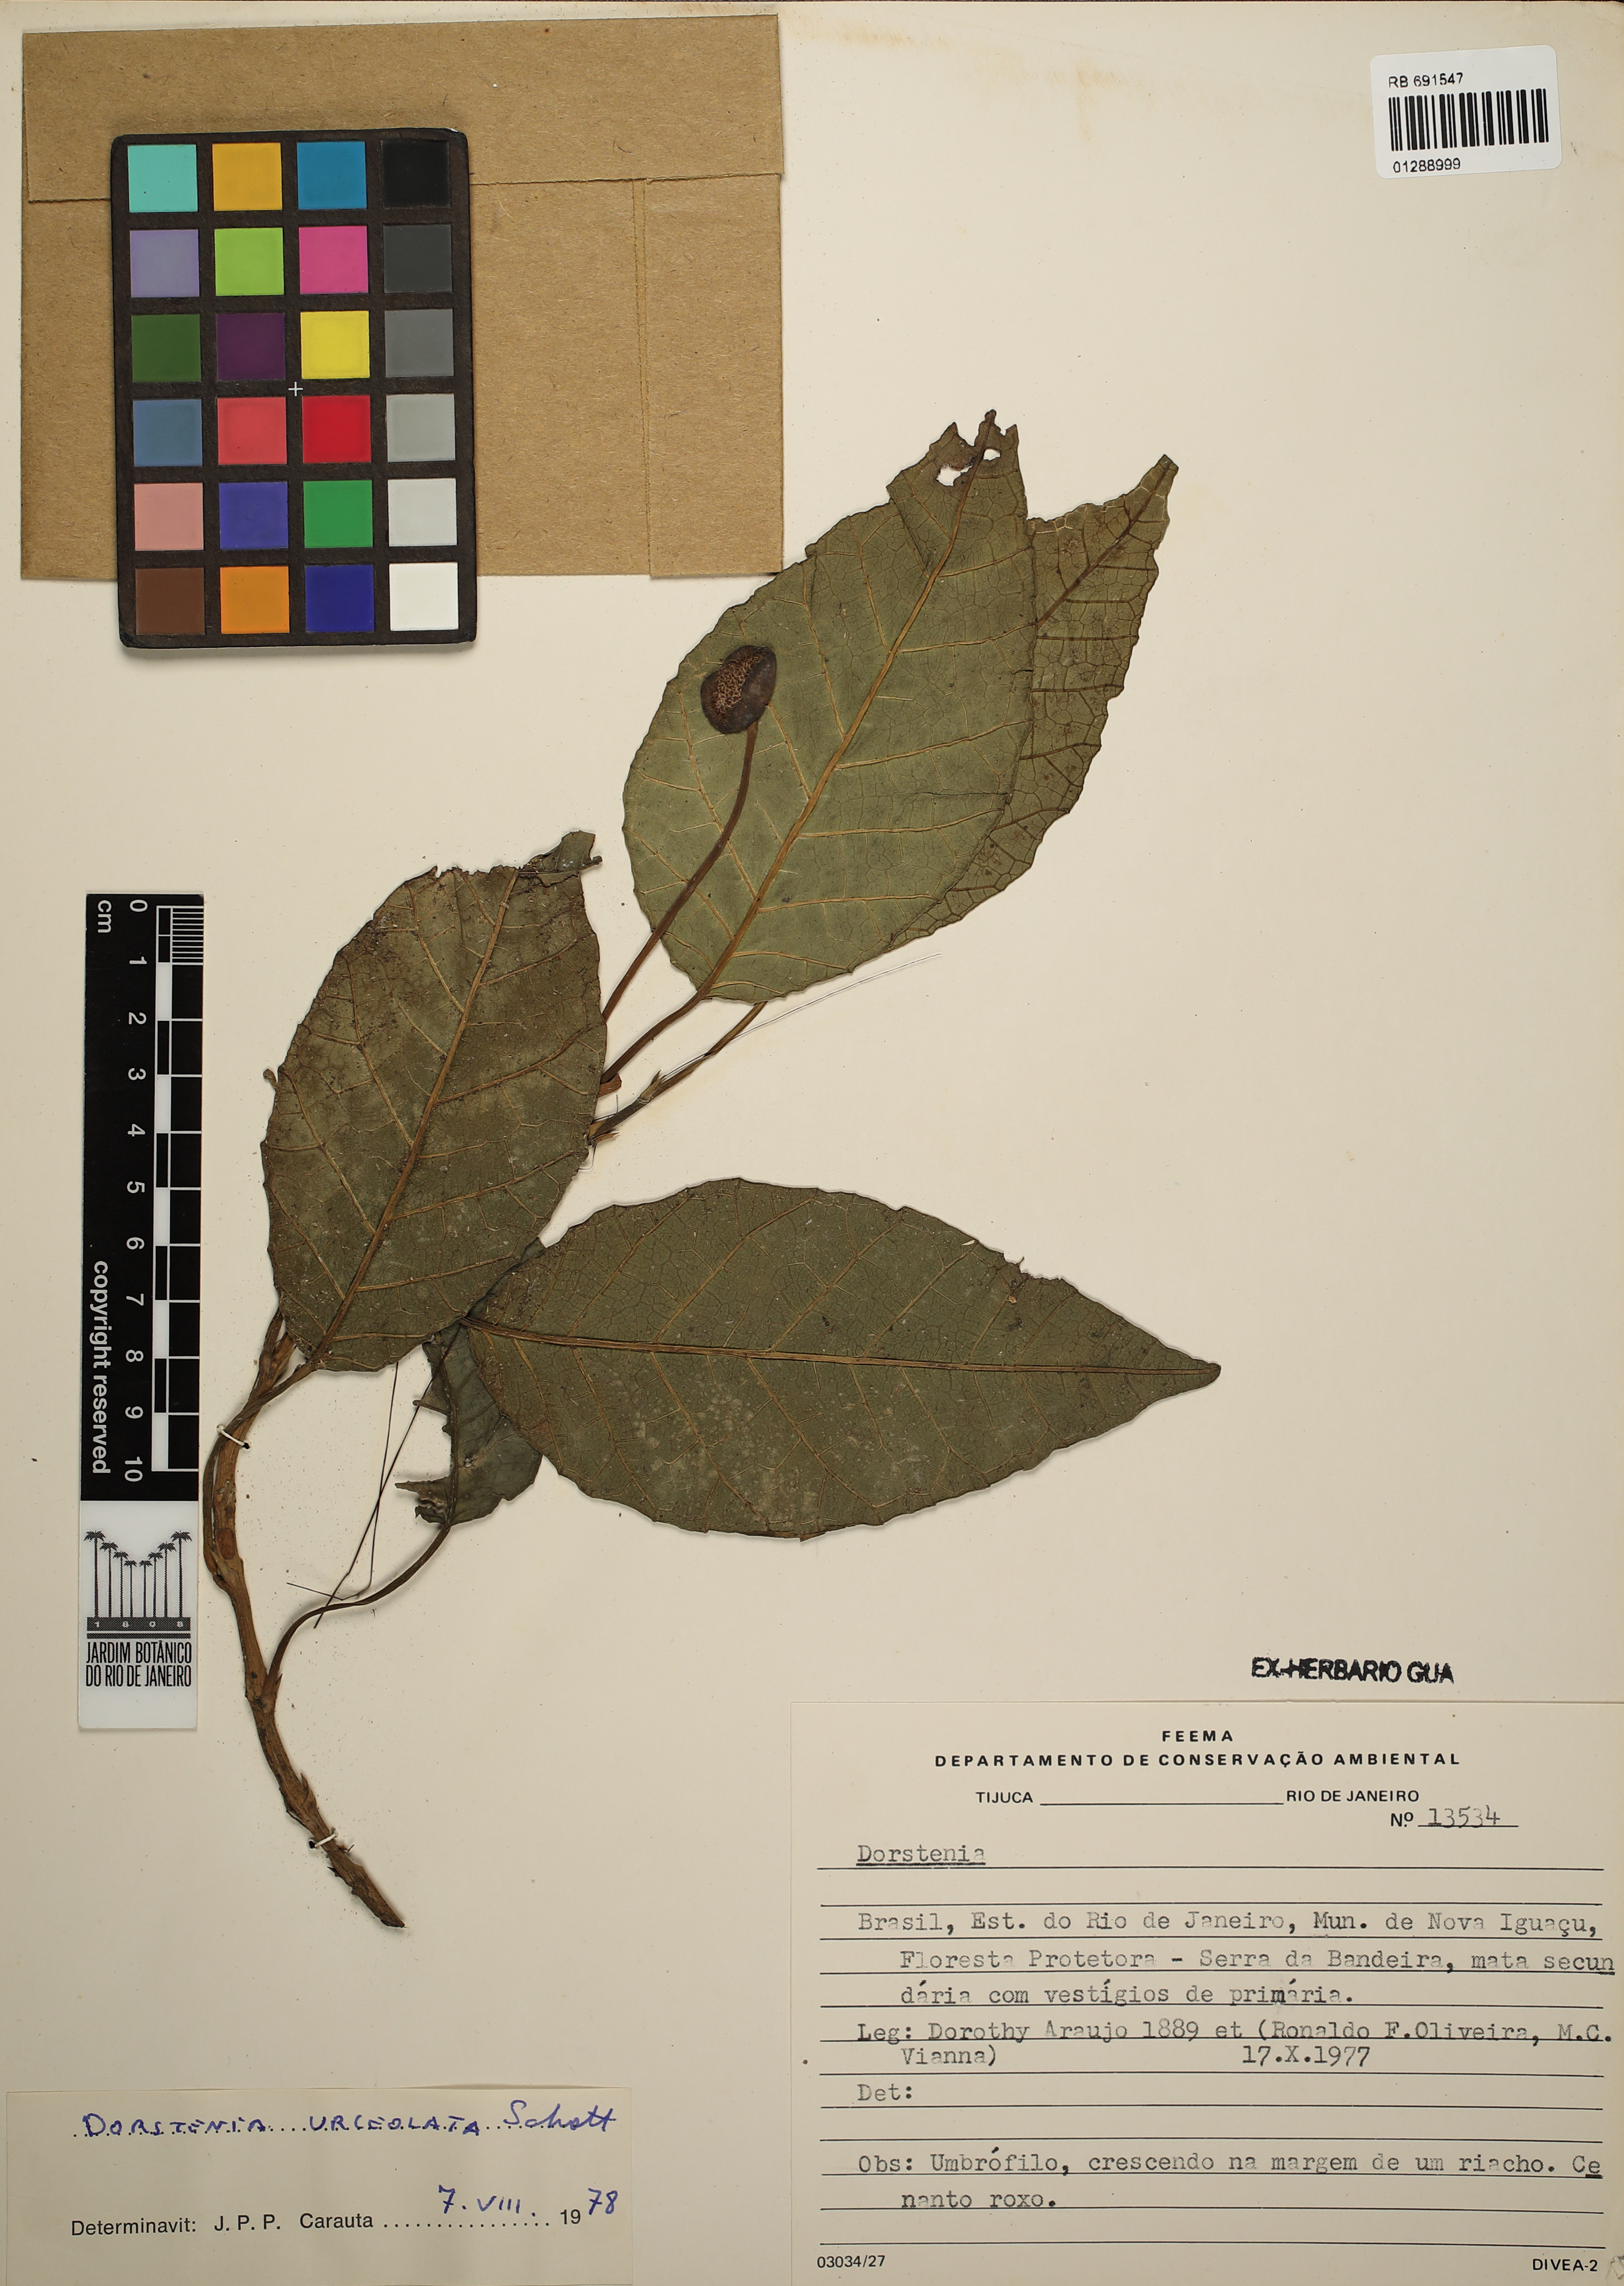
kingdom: Plantae
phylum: Tracheophyta
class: Magnoliopsida
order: Rosales
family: Moraceae
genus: Dorstenia
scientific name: Dorstenia urceolata
